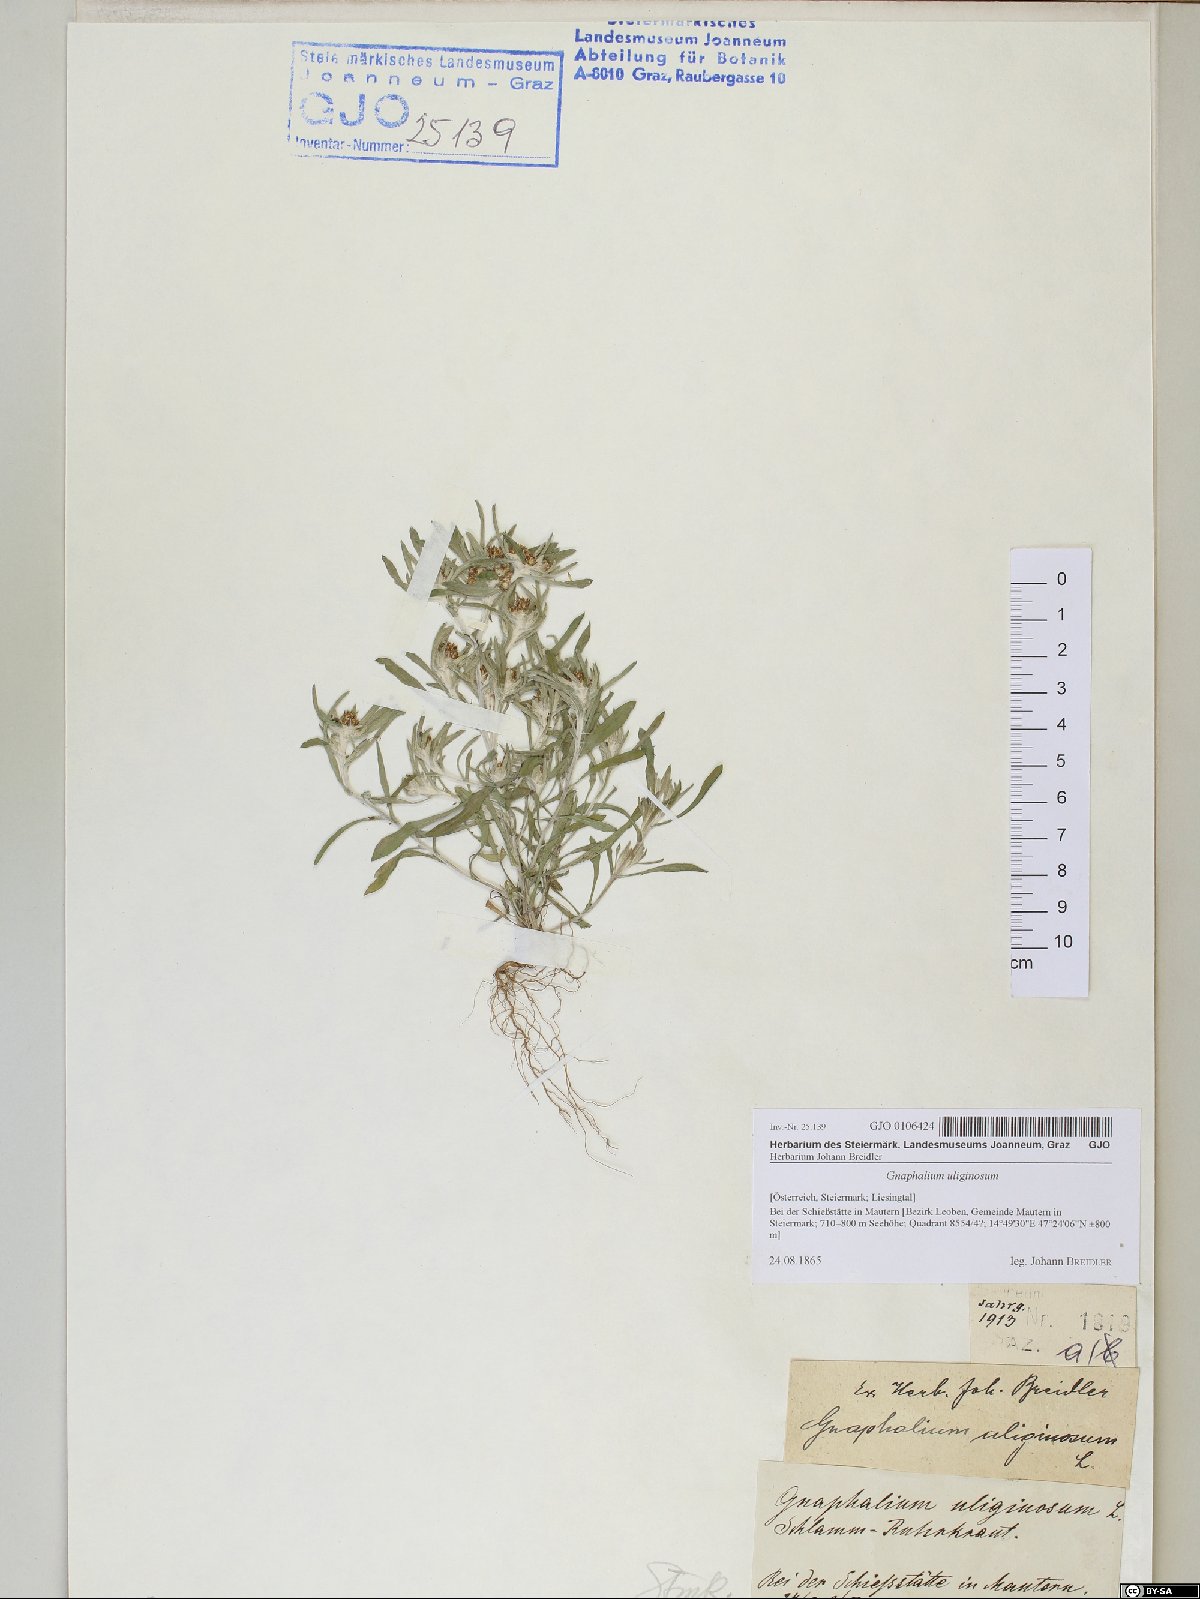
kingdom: Plantae
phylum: Tracheophyta
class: Magnoliopsida
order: Asterales
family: Asteraceae
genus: Gnaphalium
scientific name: Gnaphalium uliginosum
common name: Marsh cudweed
